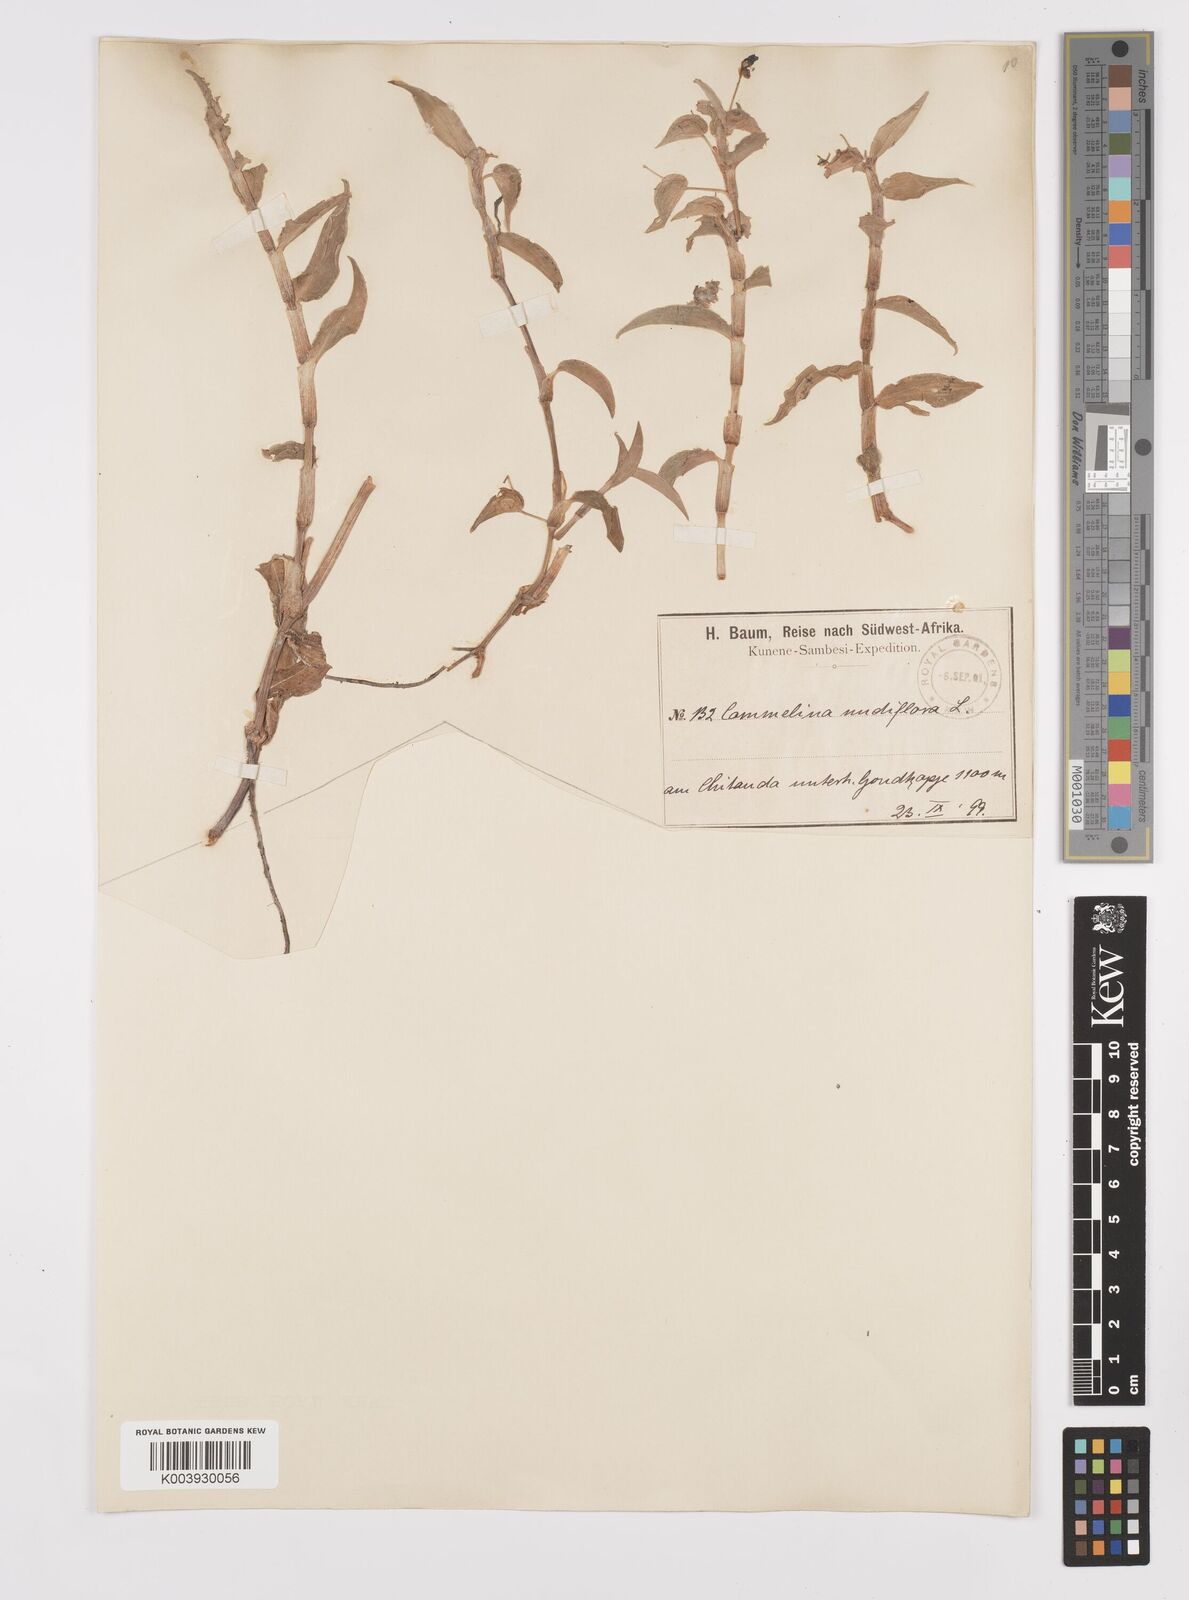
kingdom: Plantae
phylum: Tracheophyta
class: Liliopsida
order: Commelinales
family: Commelinaceae
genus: Commelina
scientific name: Commelina diffusa
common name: Climbing dayflower
